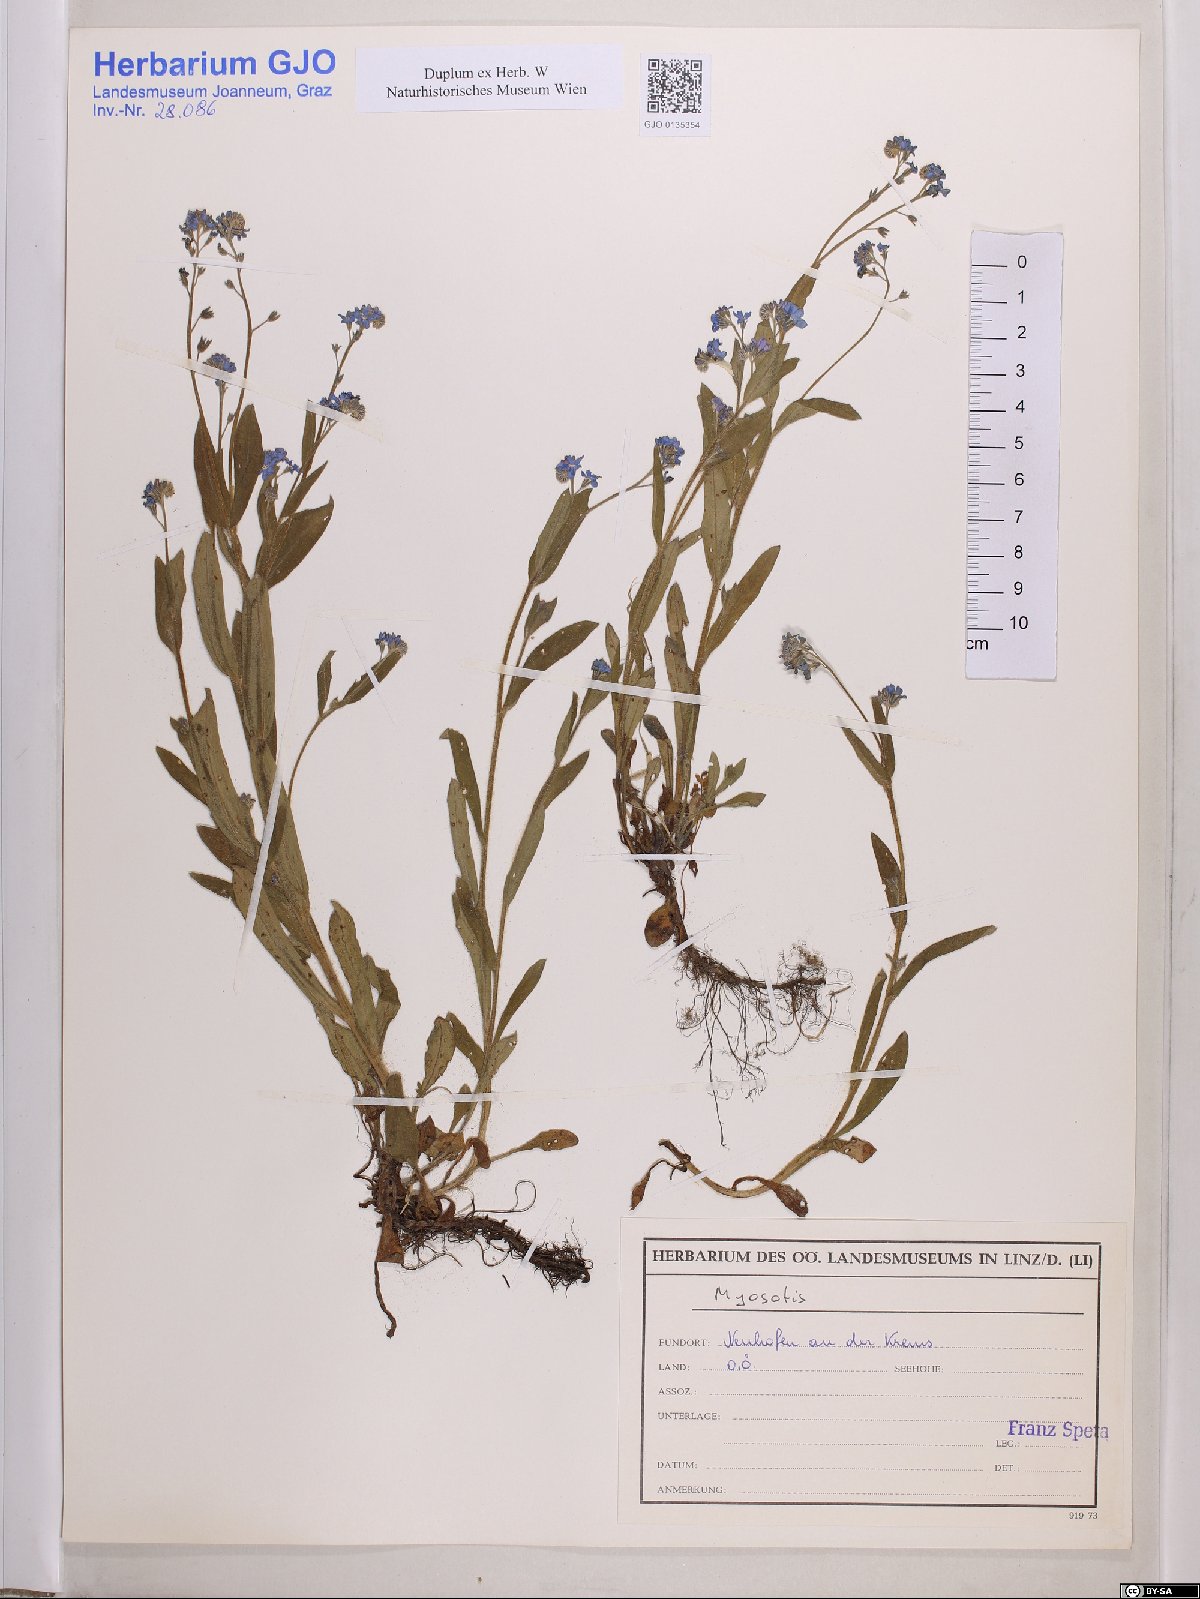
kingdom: Plantae
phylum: Tracheophyta
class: Magnoliopsida
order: Boraginales
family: Boraginaceae
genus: Myosotis
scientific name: Myosotis
